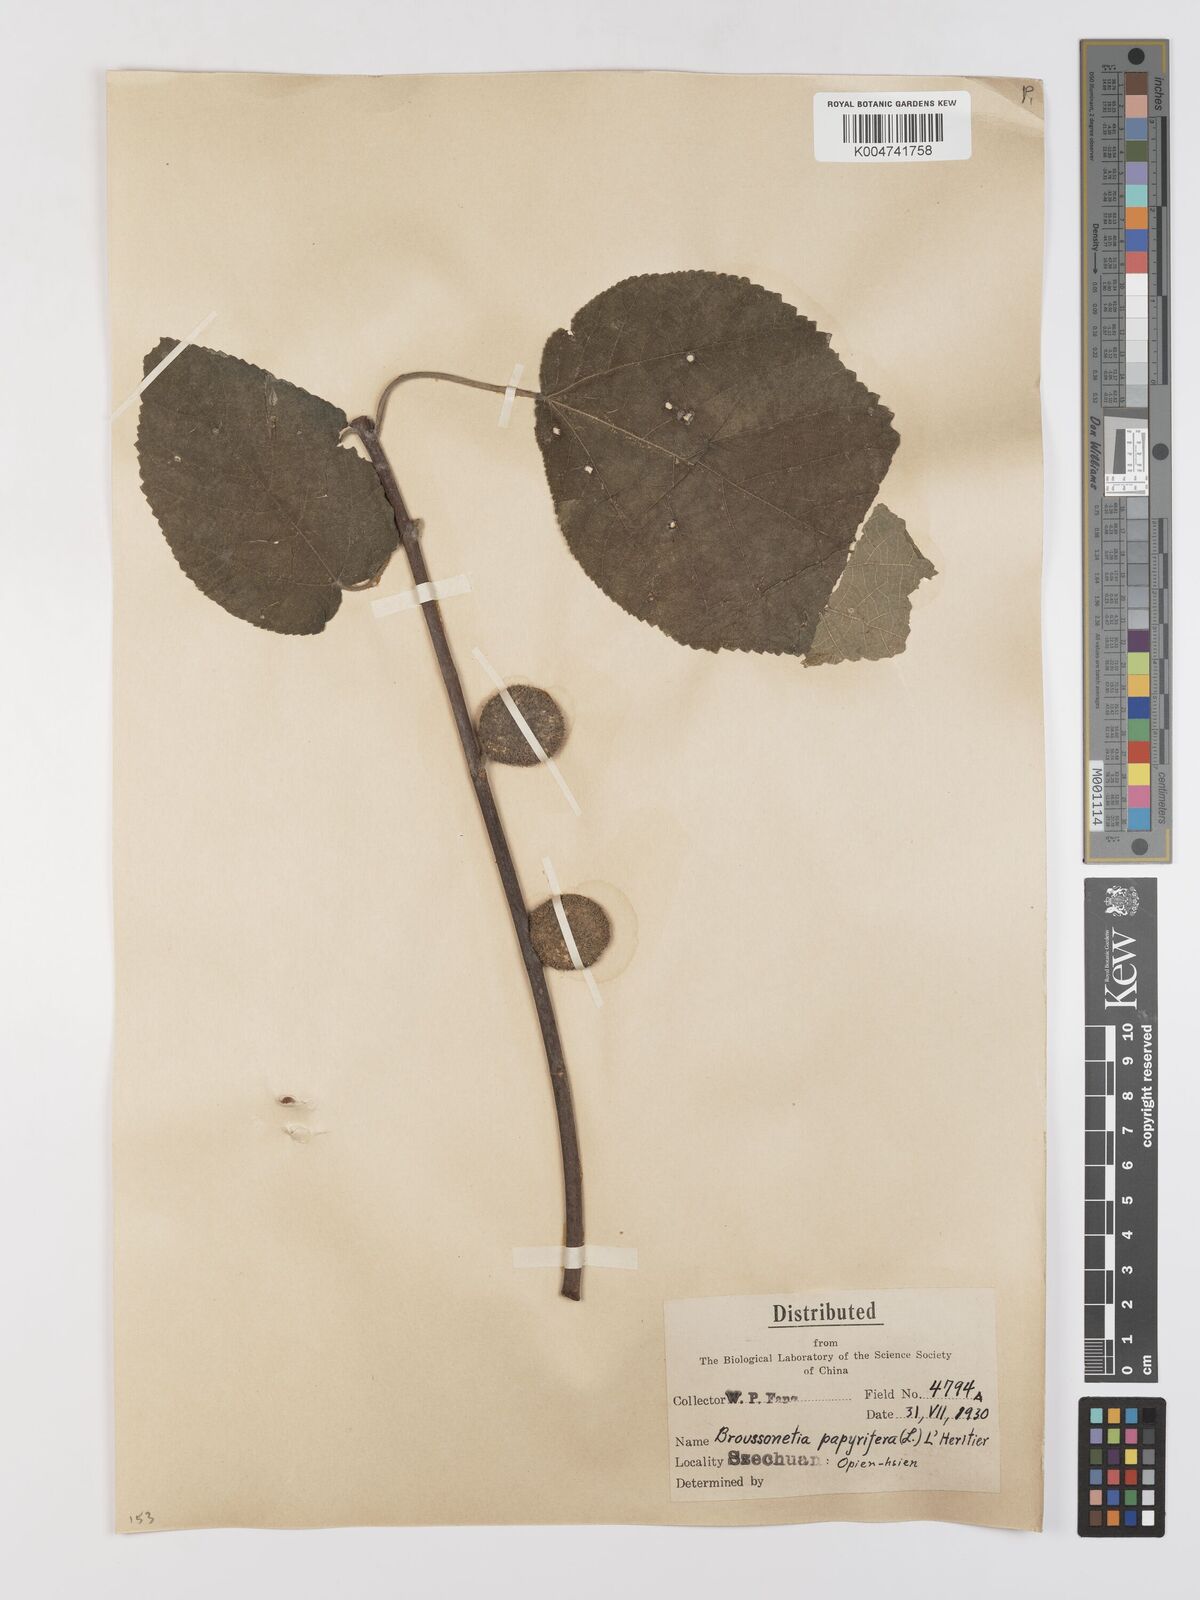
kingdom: Plantae
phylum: Tracheophyta
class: Magnoliopsida
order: Rosales
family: Moraceae
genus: Broussonetia
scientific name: Broussonetia
